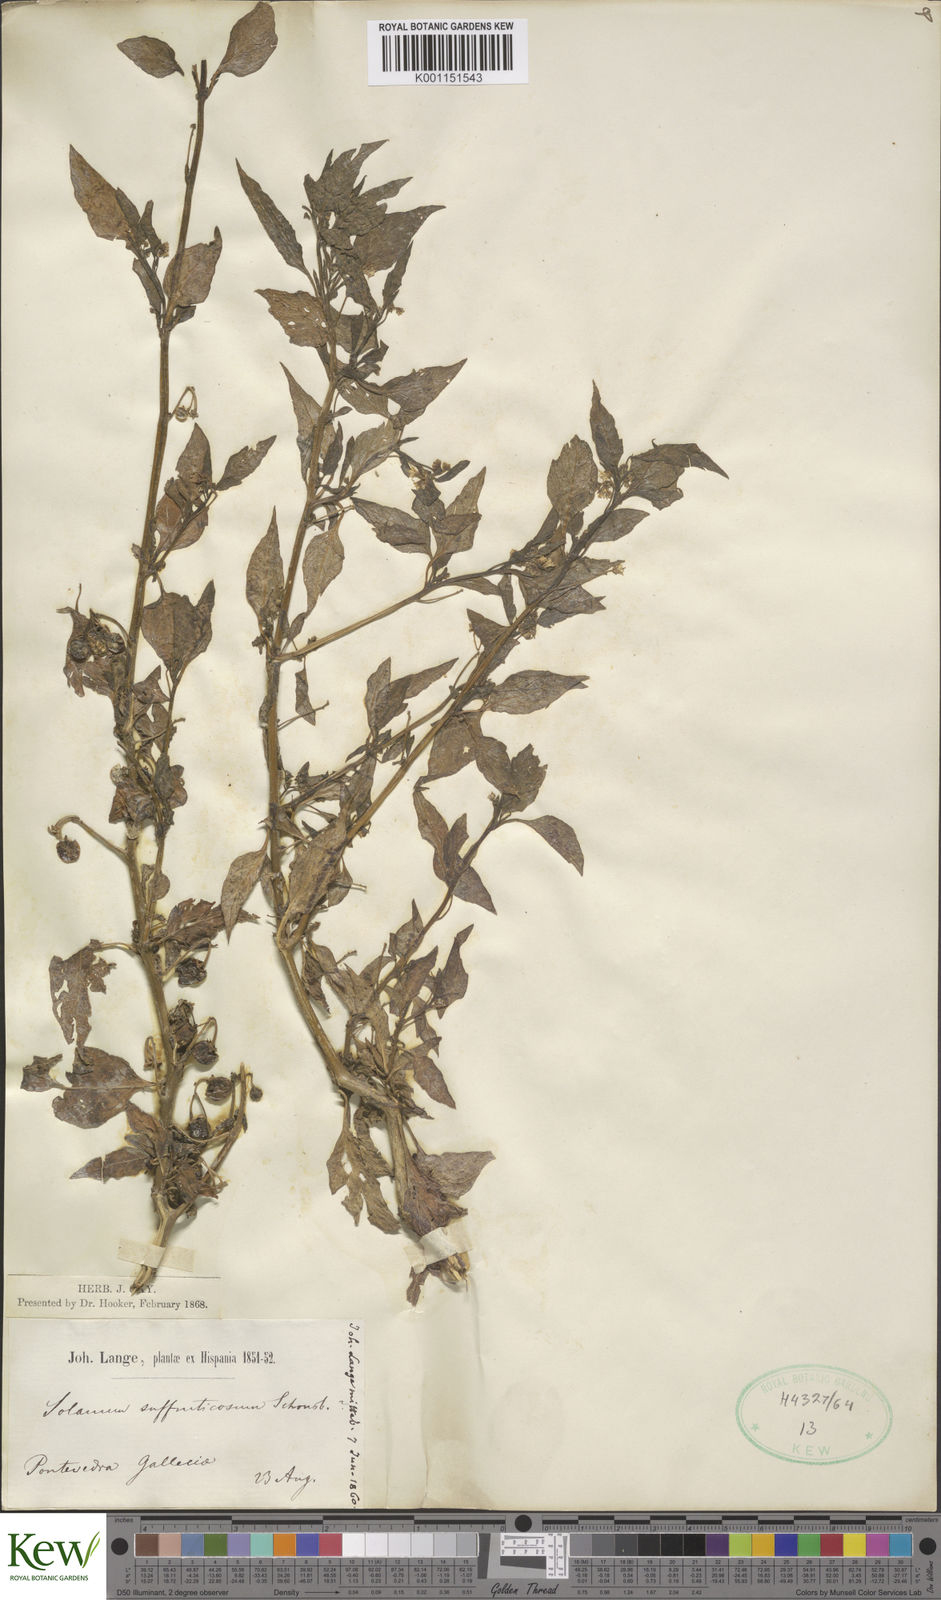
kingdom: Plantae
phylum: Tracheophyta
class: Magnoliopsida
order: Solanales
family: Solanaceae
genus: Solanum
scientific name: Solanum americanum
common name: American black nightshade
